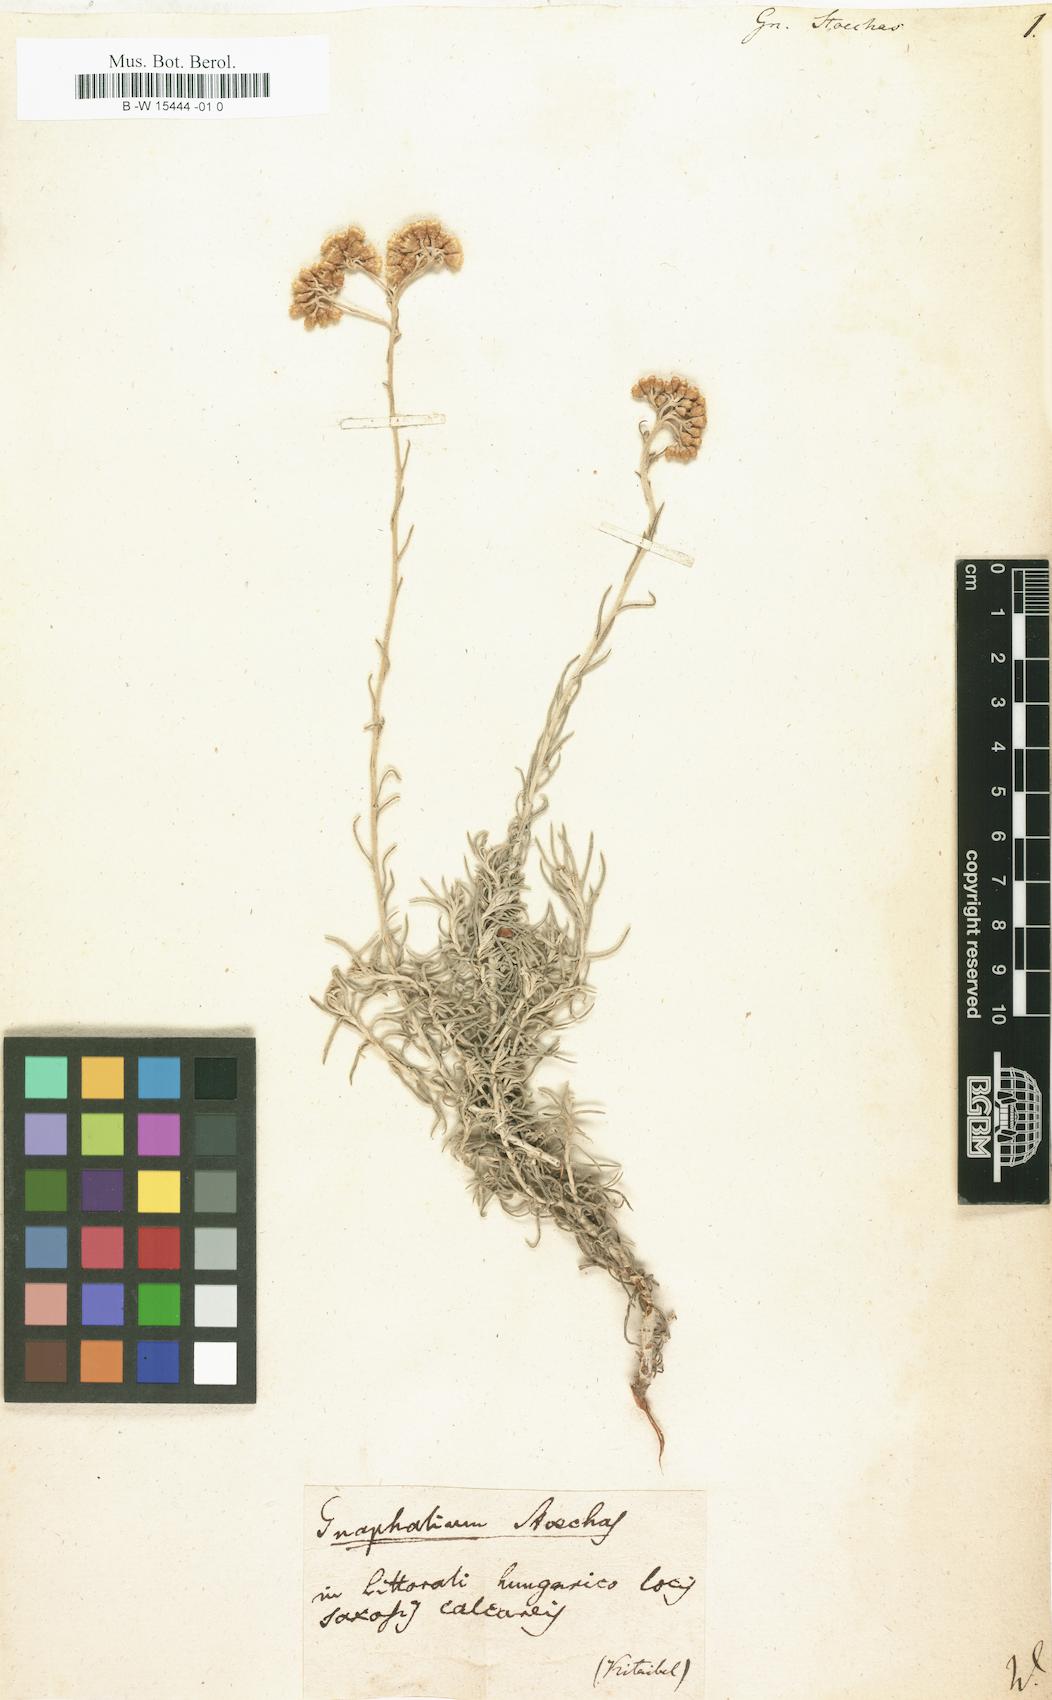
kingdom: Plantae
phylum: Tracheophyta
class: Magnoliopsida
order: Asterales
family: Asteraceae
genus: Helichrysum
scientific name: Helichrysum
